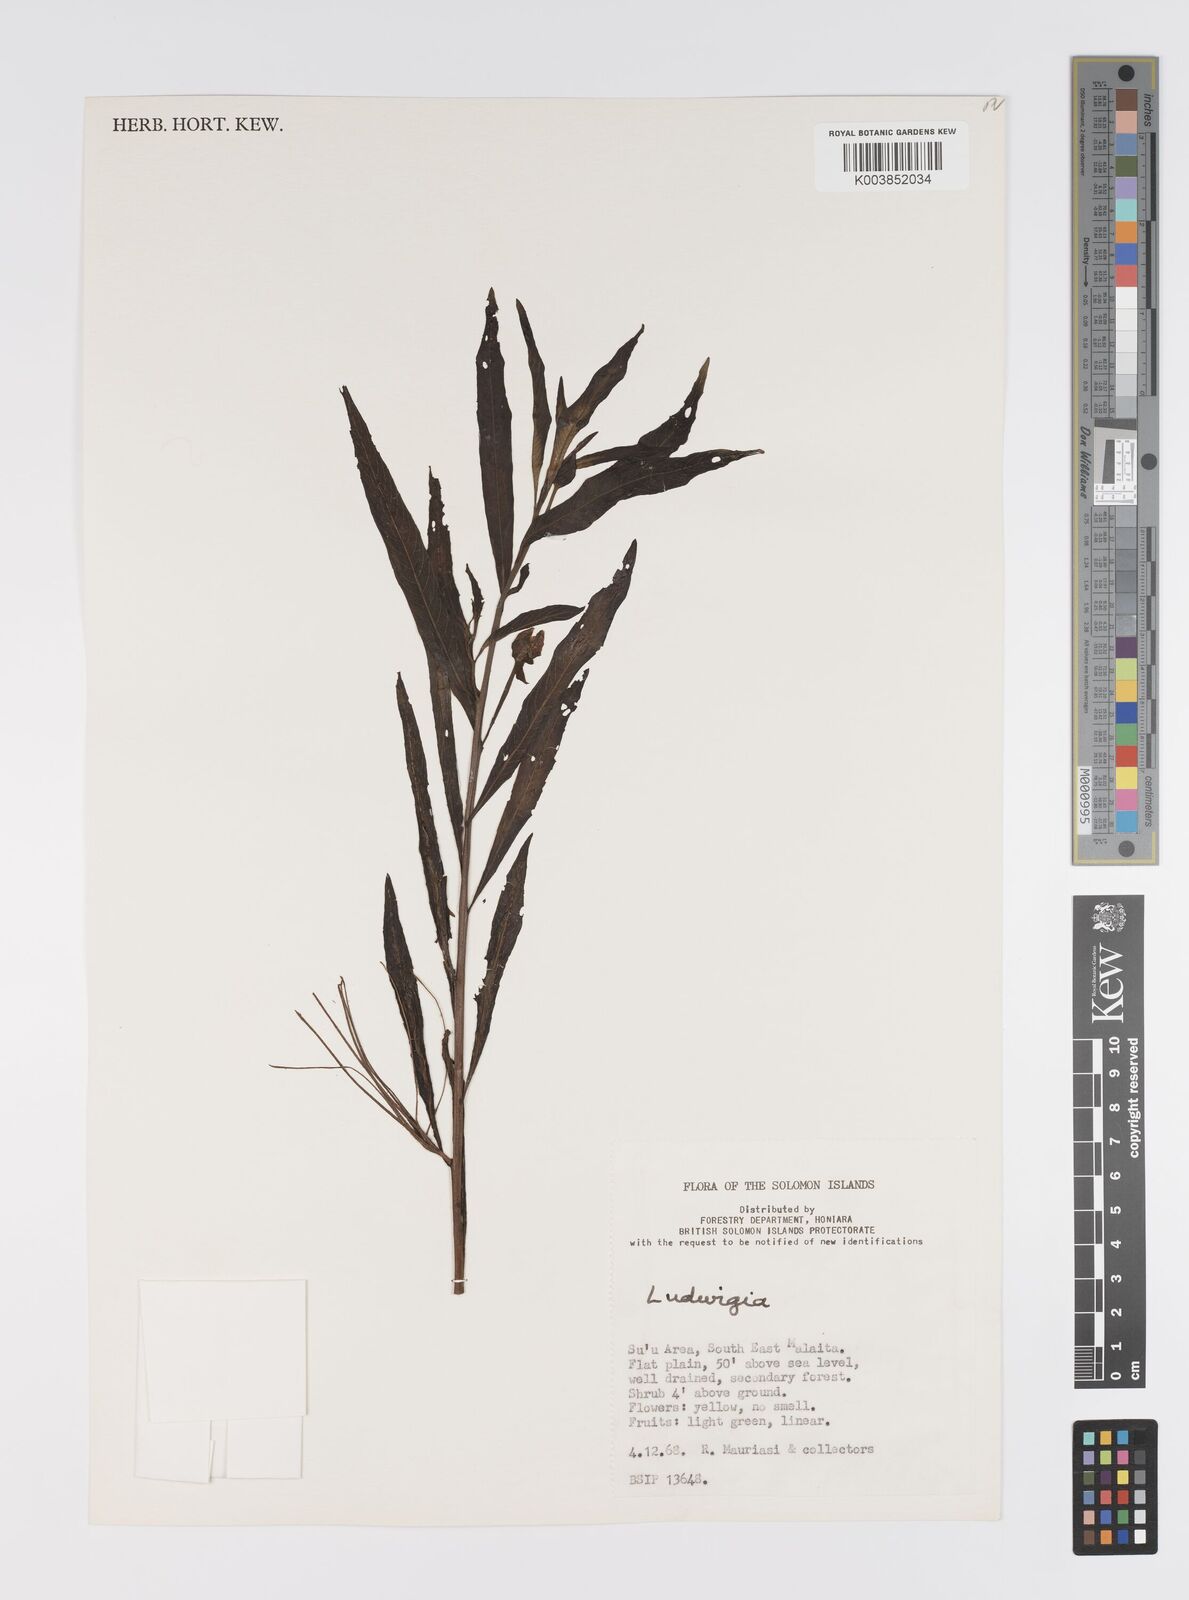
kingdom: Plantae
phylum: Tracheophyta
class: Magnoliopsida
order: Myrtales
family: Onagraceae
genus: Ludwigia
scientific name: Ludwigia octovalvis
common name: Water-primrose
